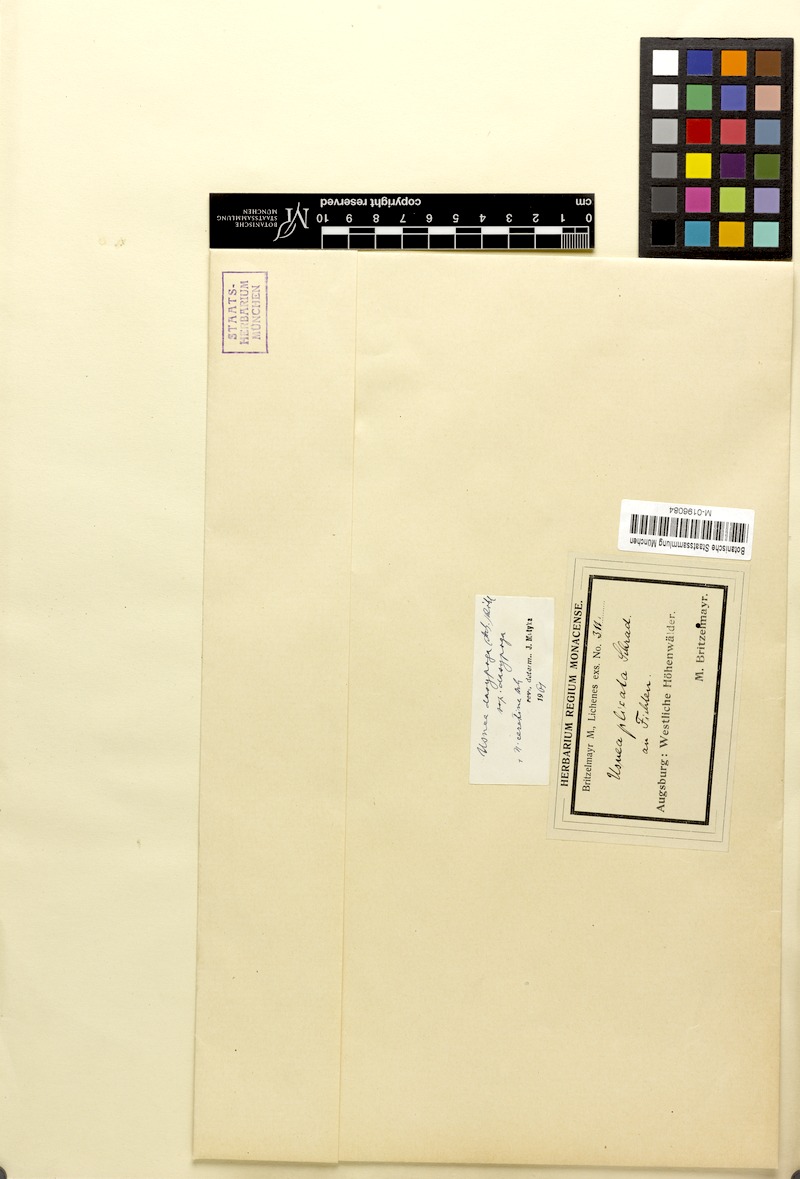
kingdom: Fungi
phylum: Ascomycota
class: Lecanoromycetes
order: Lecanorales
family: Parmeliaceae
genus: Usnea
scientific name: Usnea ceratina
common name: Warty beard lichen
